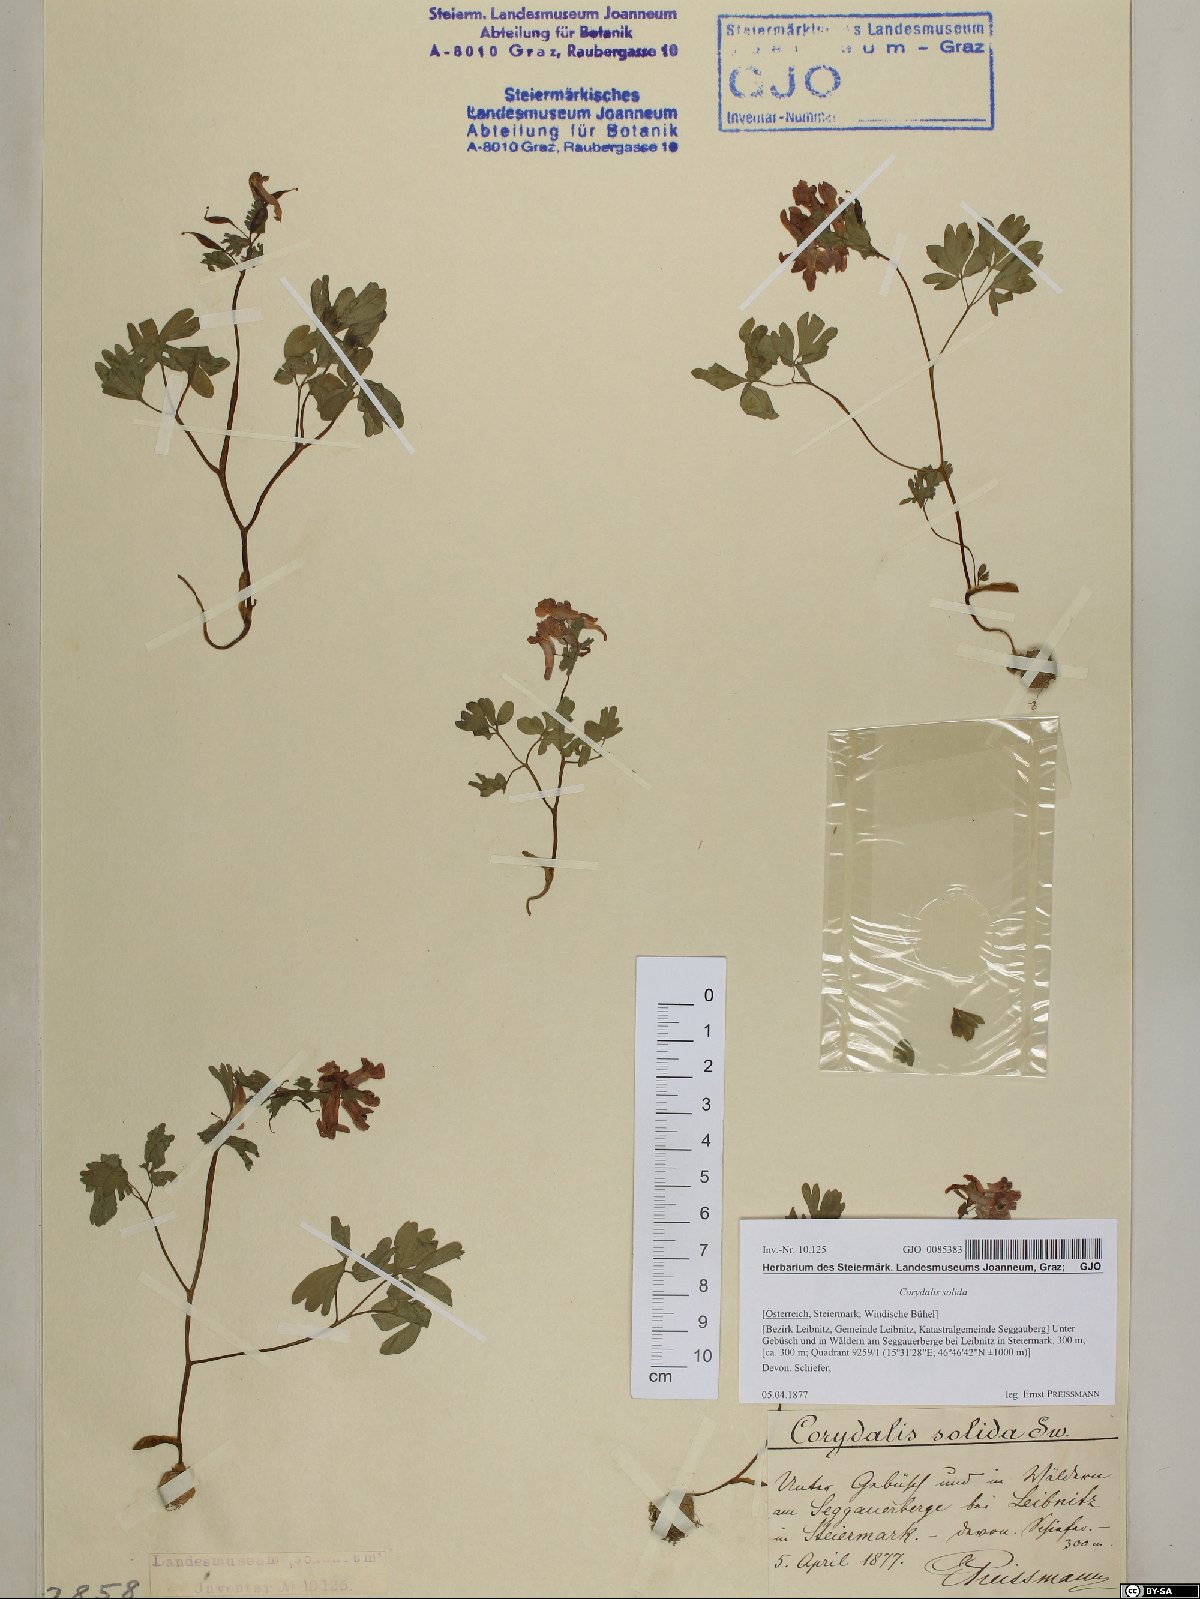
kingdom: Plantae
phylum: Tracheophyta
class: Magnoliopsida
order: Ranunculales
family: Papaveraceae
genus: Corydalis
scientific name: Corydalis solida
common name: Bird-in-a-bush
